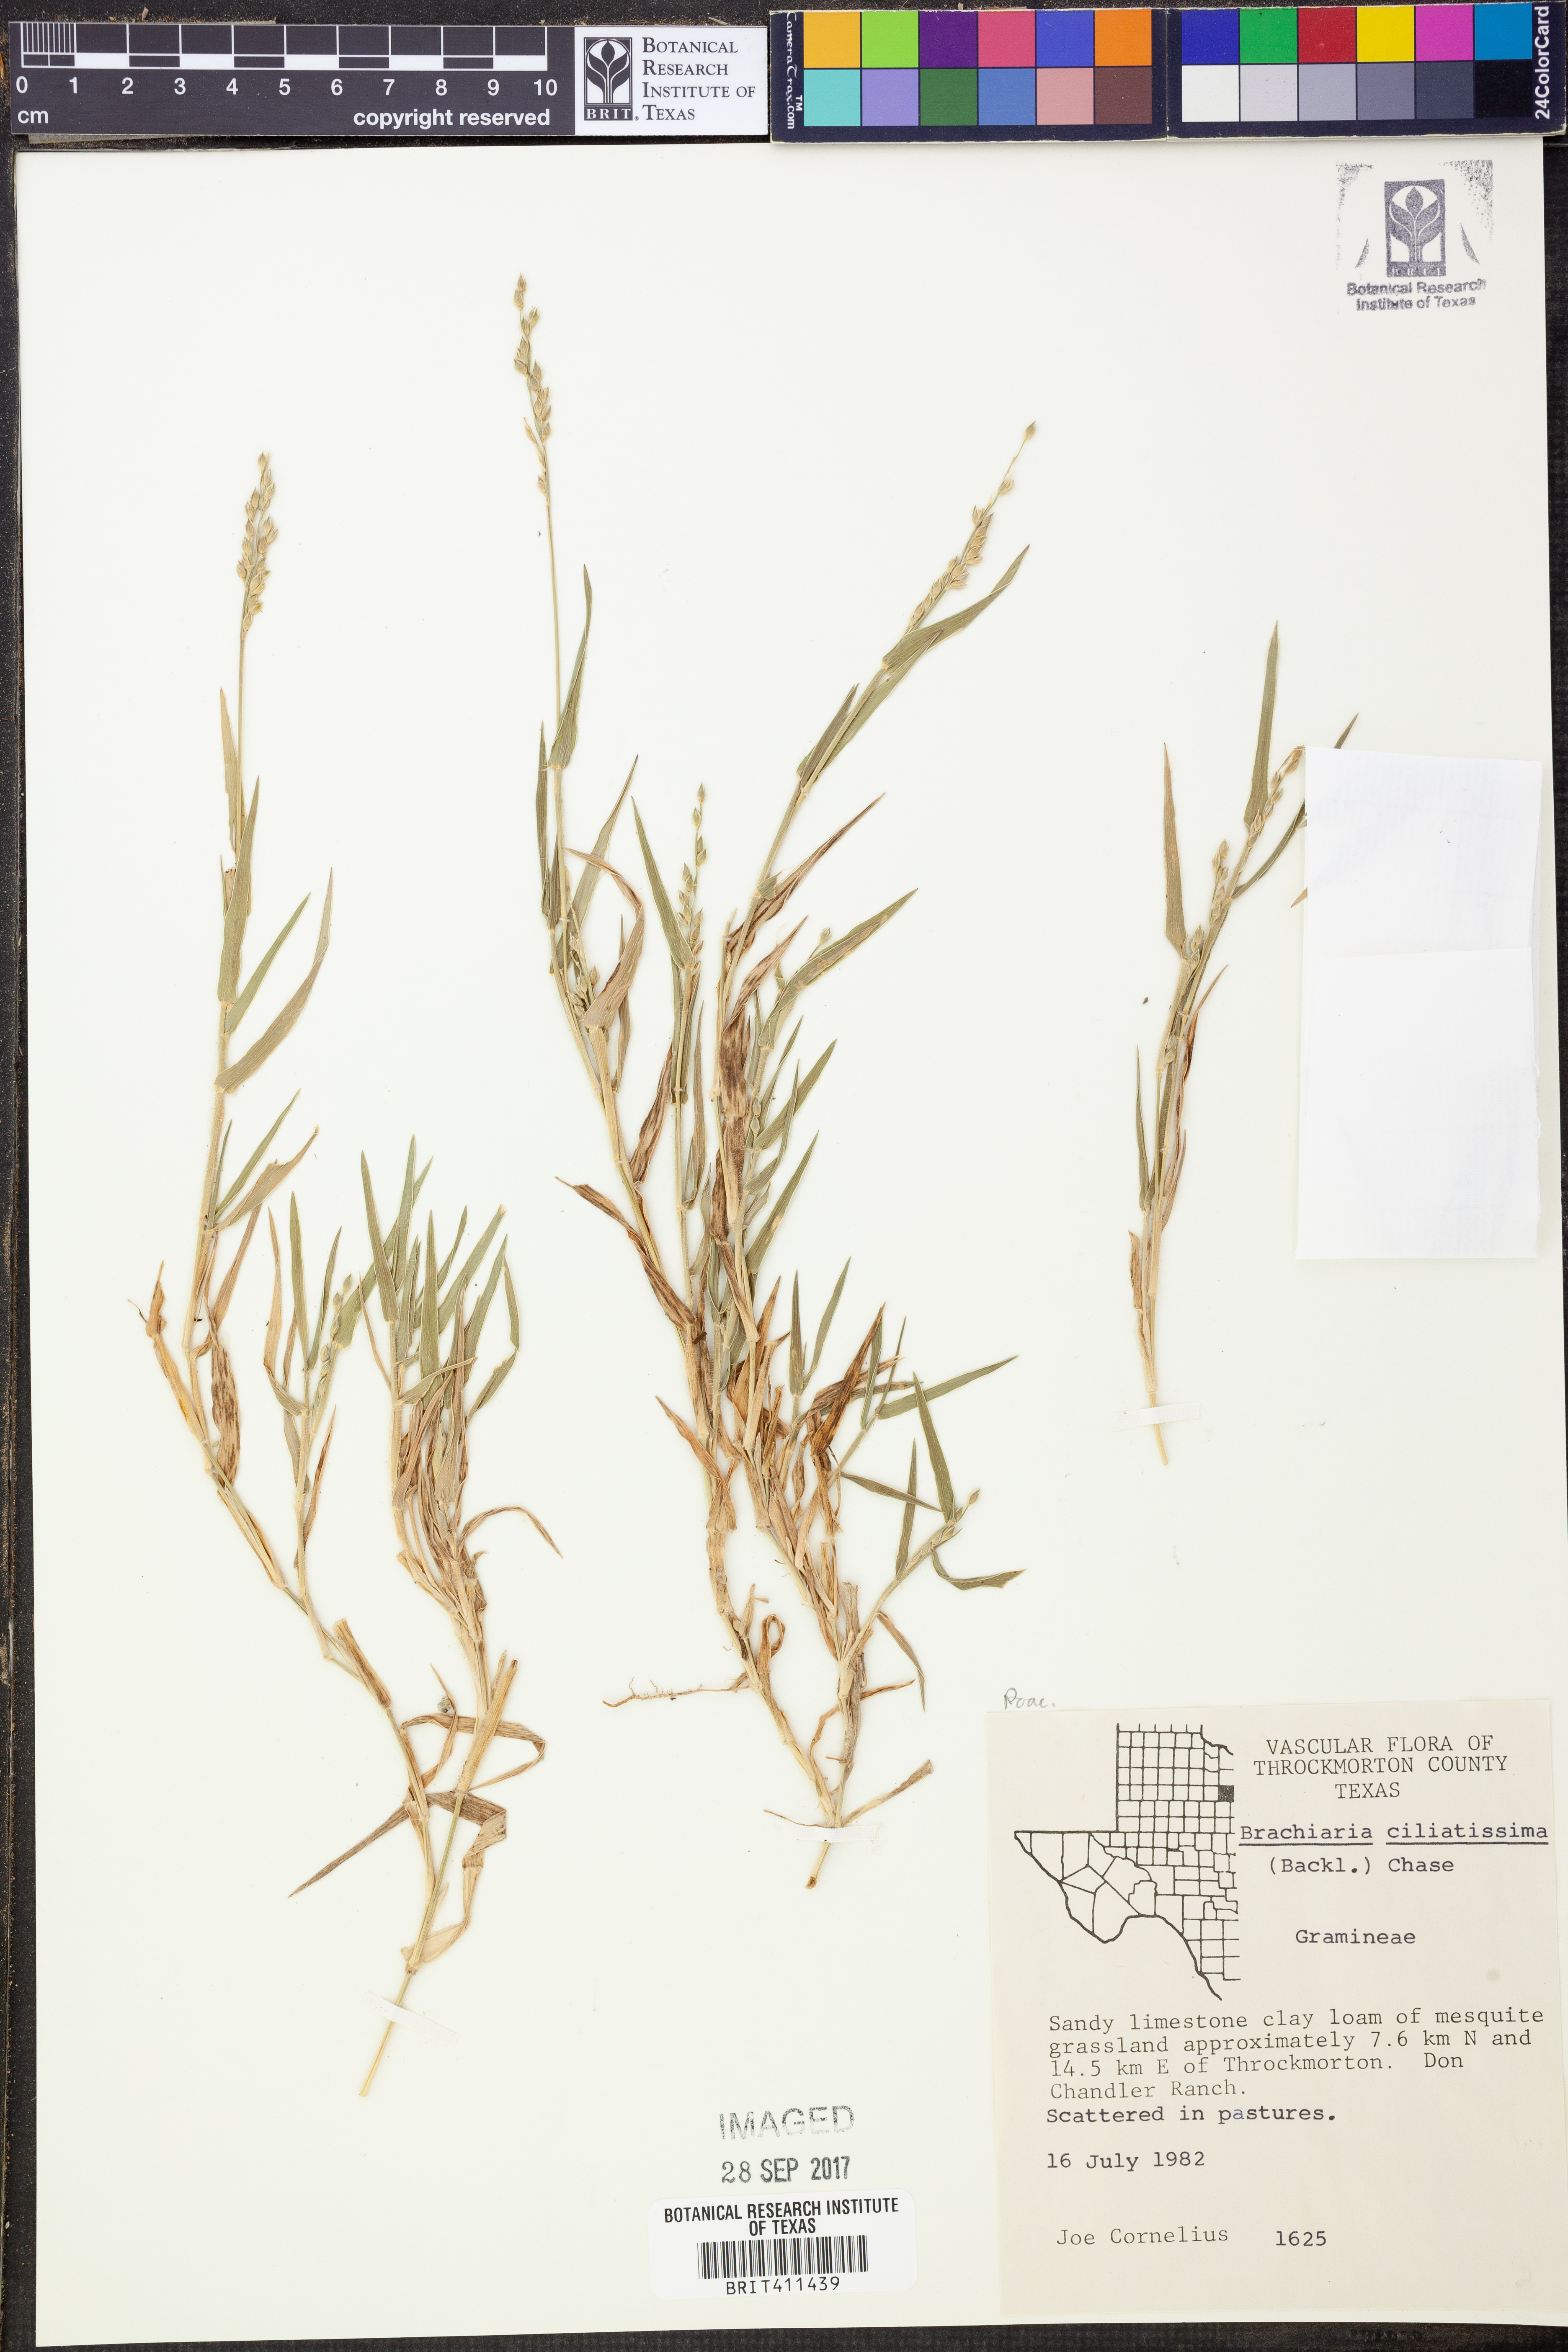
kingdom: Plantae
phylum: Tracheophyta
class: Liliopsida
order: Poales
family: Poaceae
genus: Urochloa
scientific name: Urochloa ciliatissima
